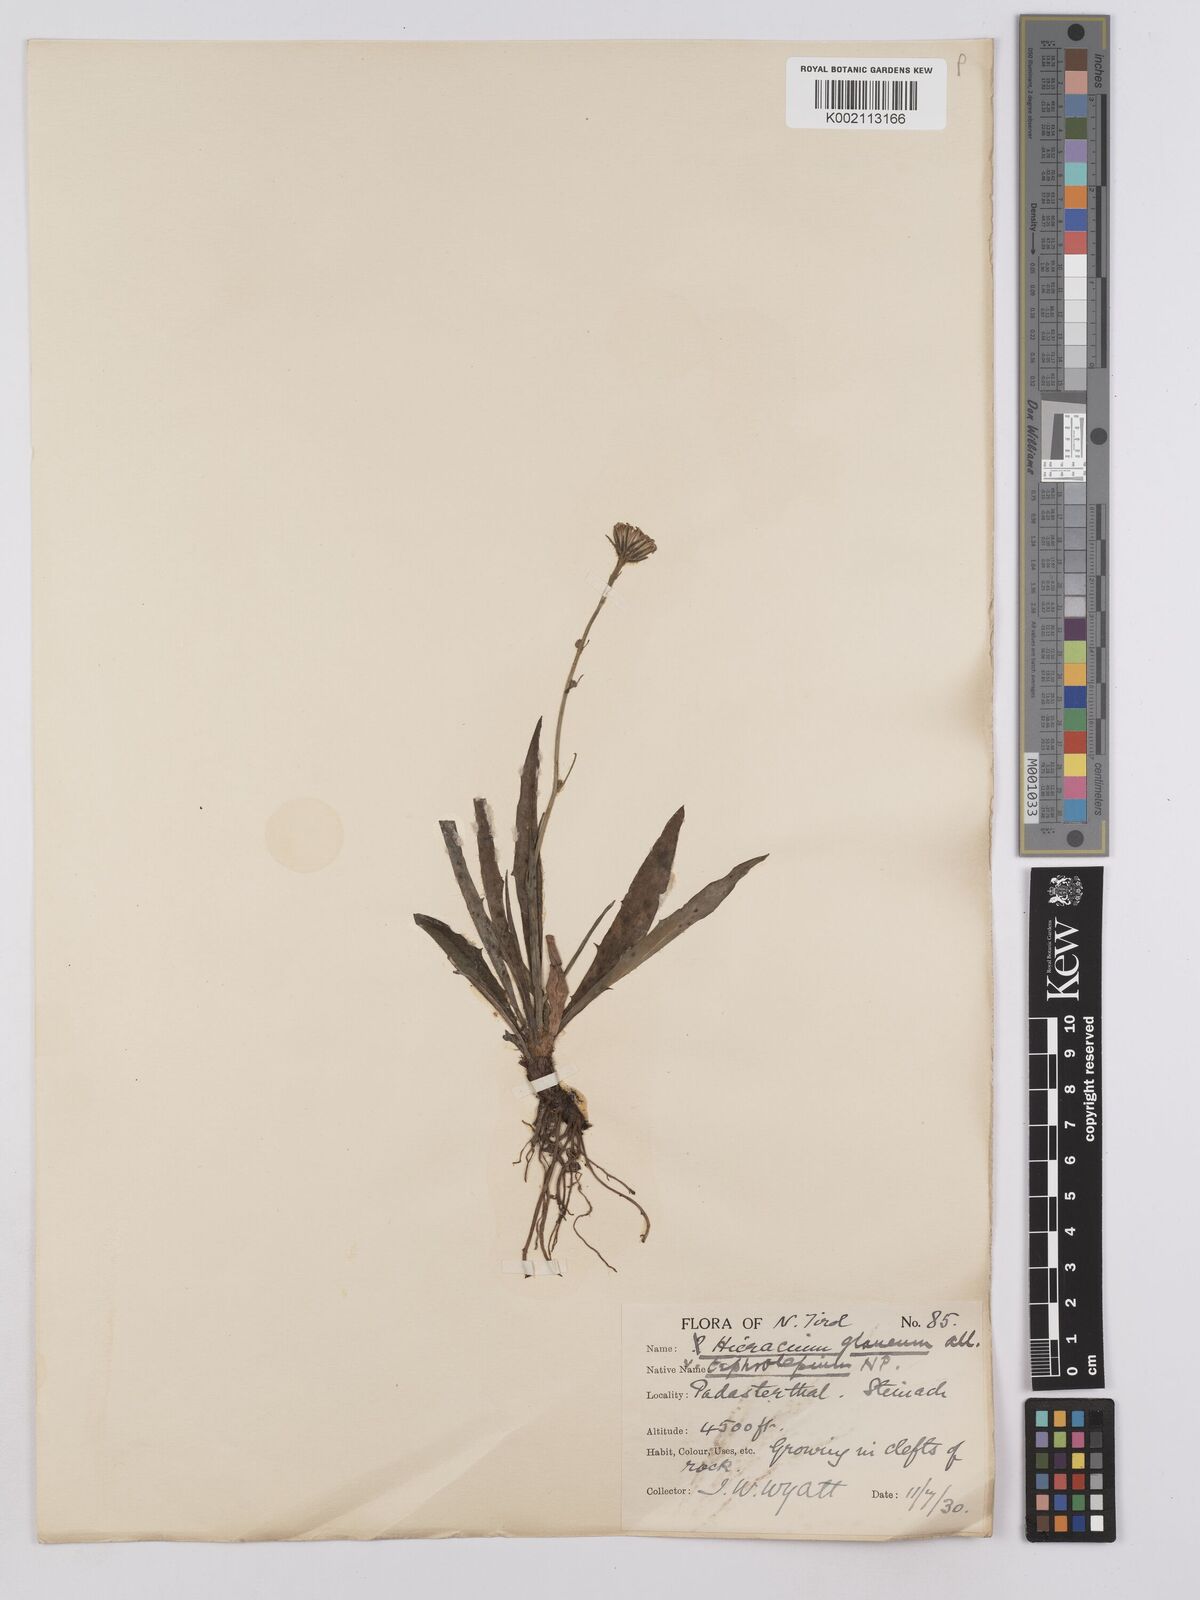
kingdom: Plantae
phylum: Tracheophyta
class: Magnoliopsida
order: Asterales
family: Asteraceae
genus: Hieracium
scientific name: Hieracium glaucum
